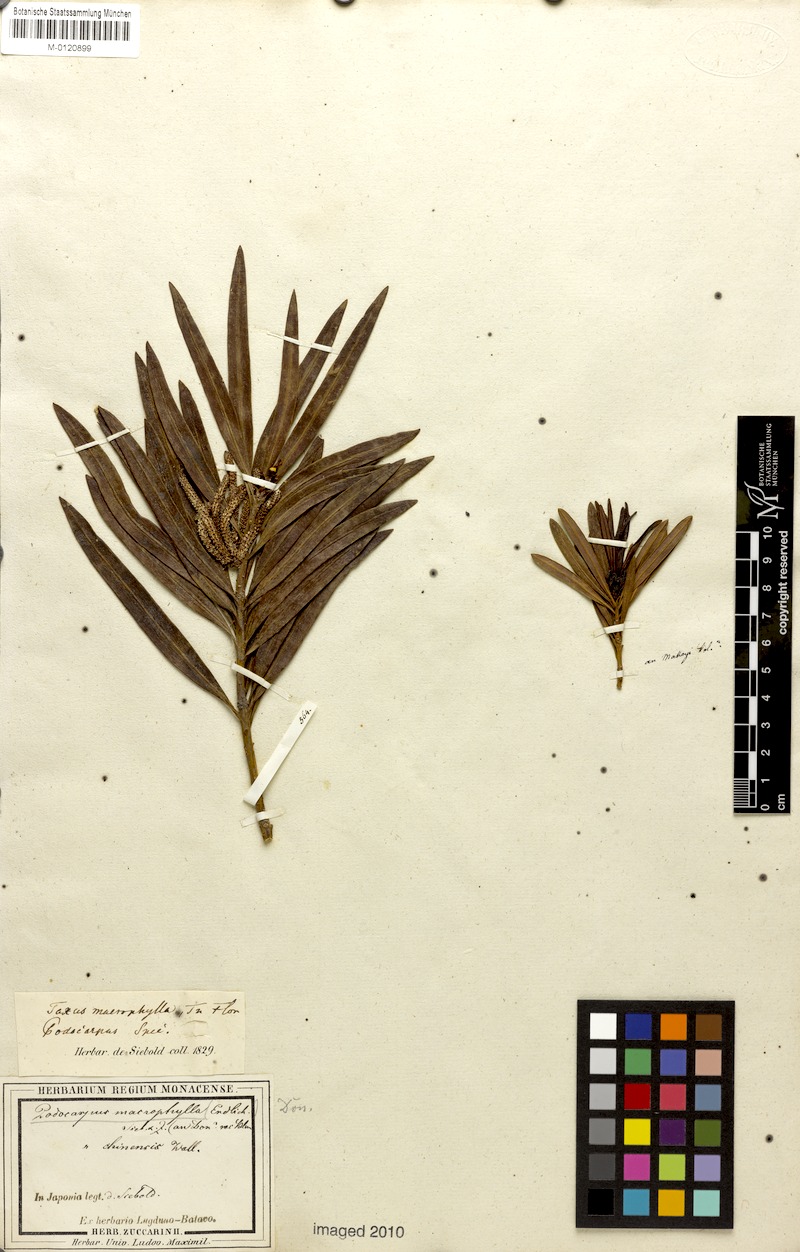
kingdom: Plantae
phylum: Tracheophyta
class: Pinopsida
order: Pinales
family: Podocarpaceae
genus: Podocarpus
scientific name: Podocarpus macrophyllus
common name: Japanese yew
